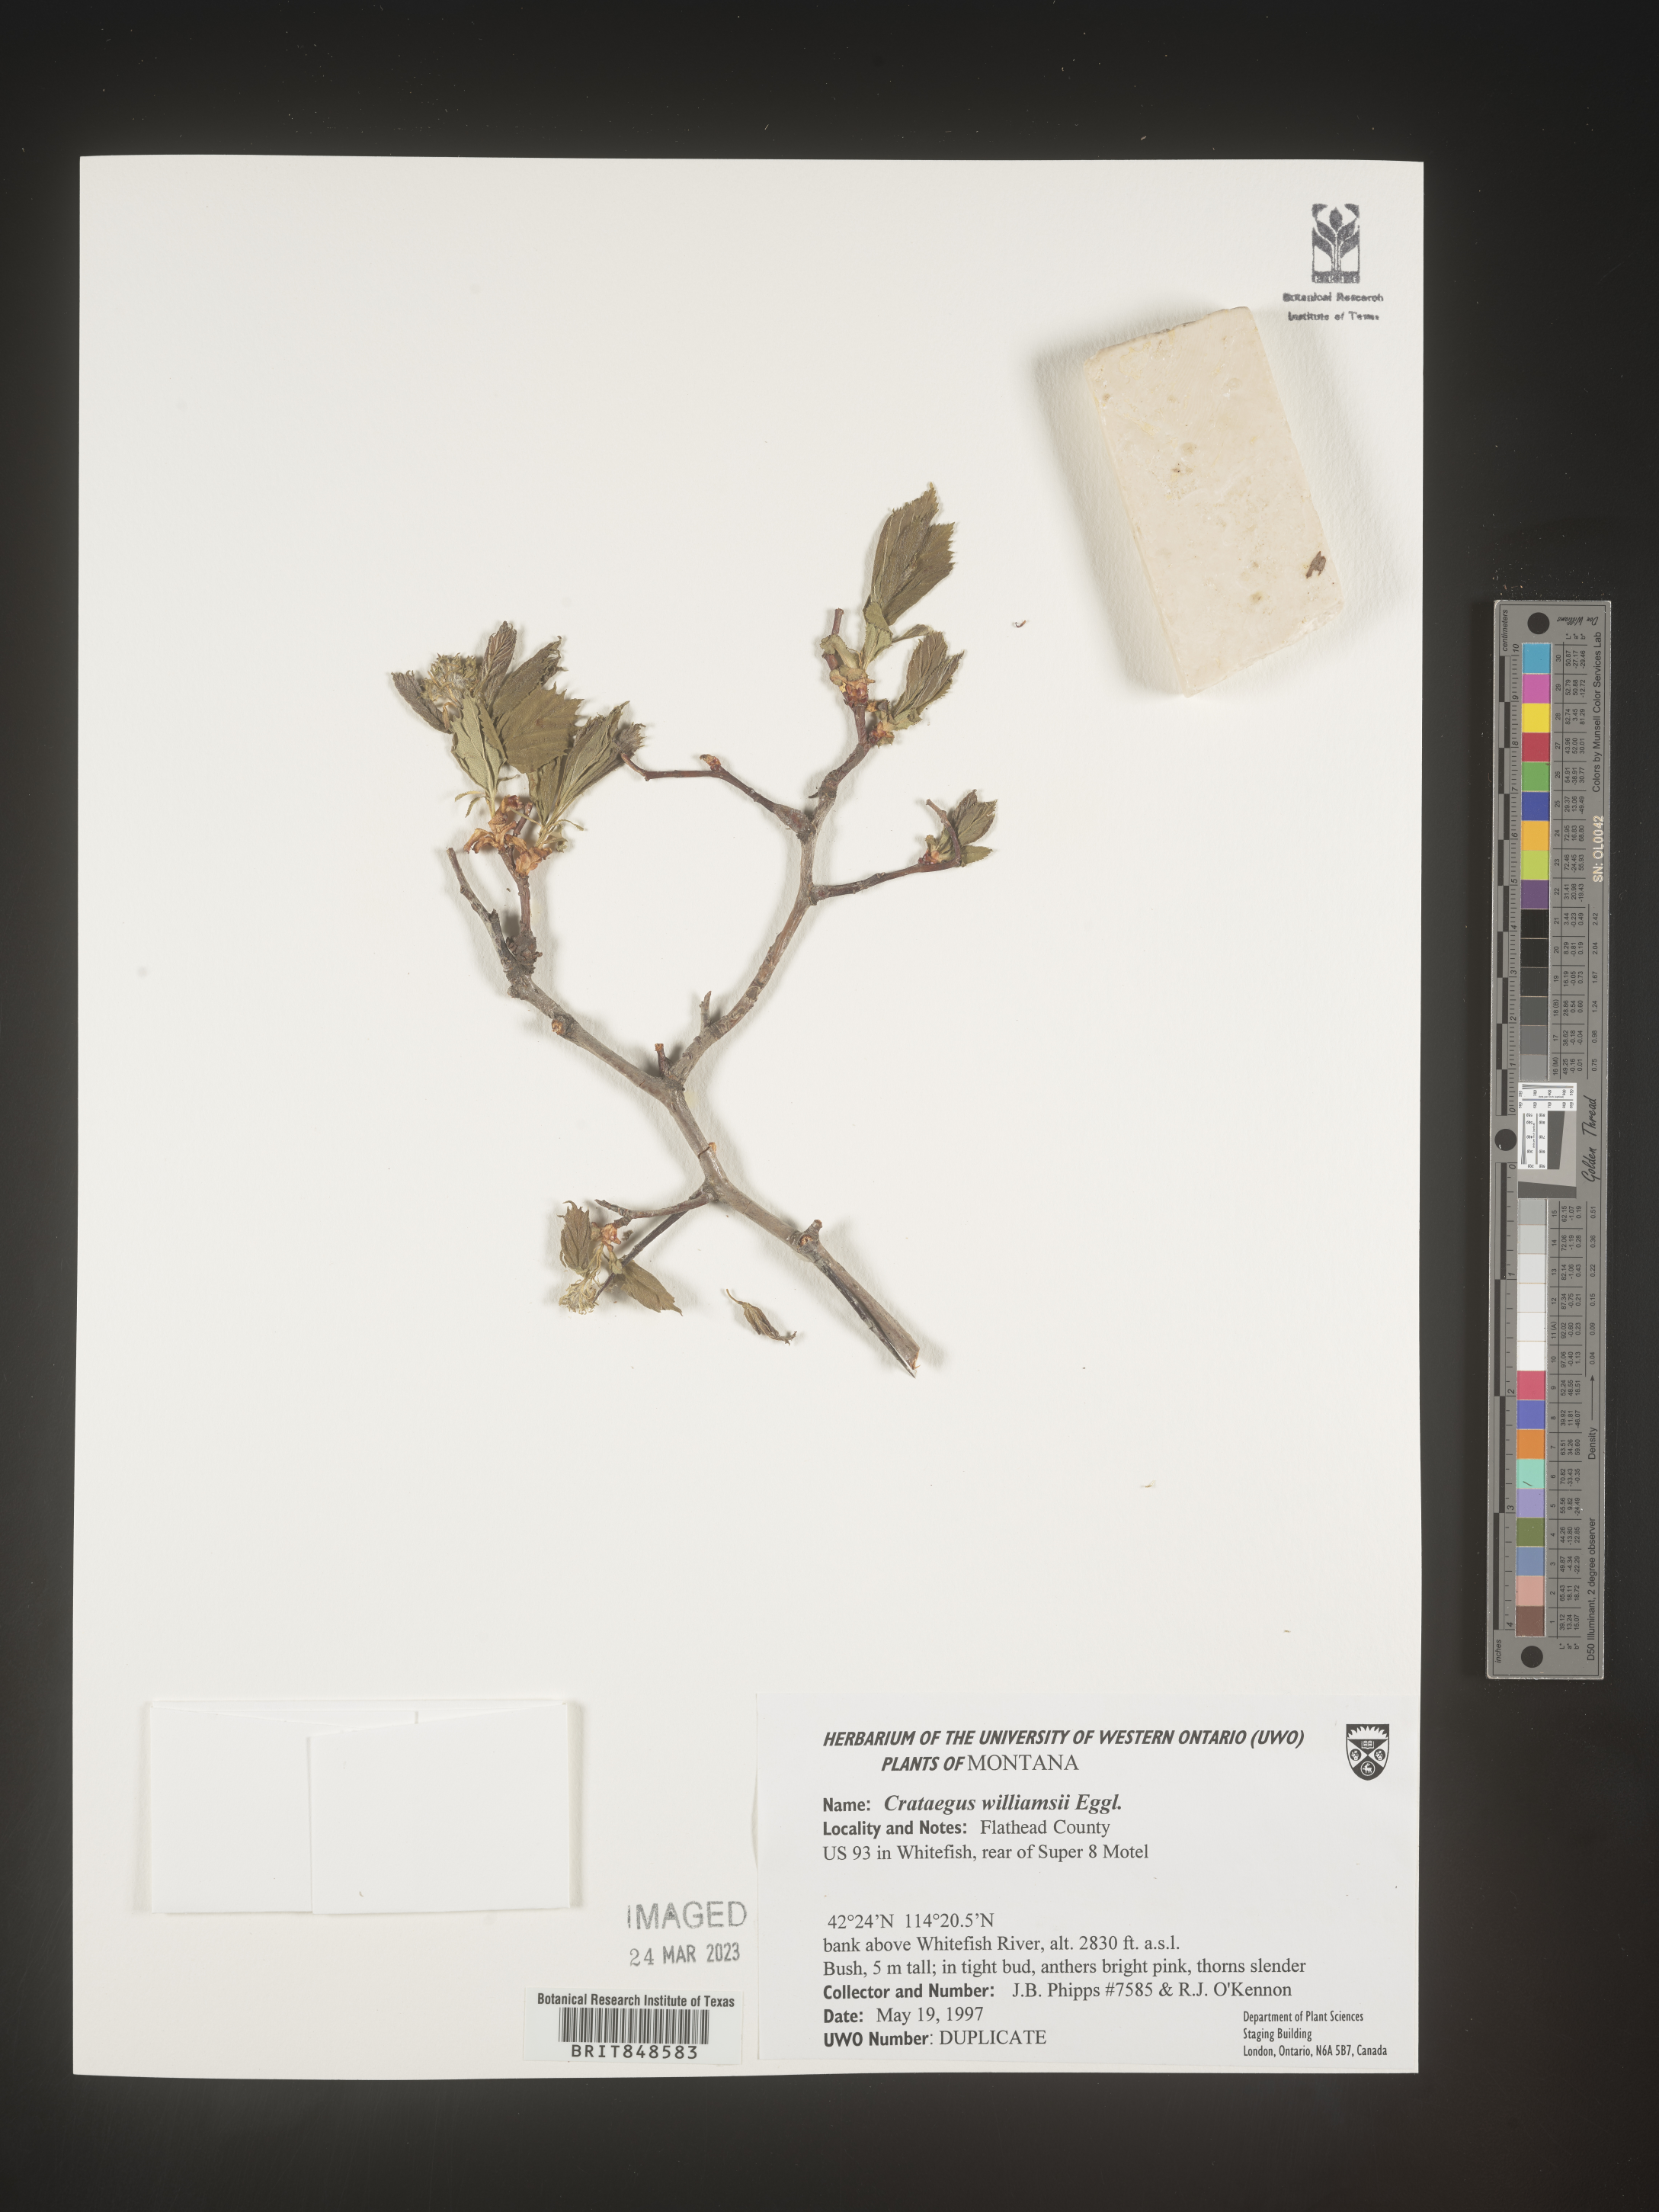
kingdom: Plantae
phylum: Tracheophyta
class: Magnoliopsida
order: Rosales
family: Rosaceae
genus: Crataegus
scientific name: Crataegus williamsii
